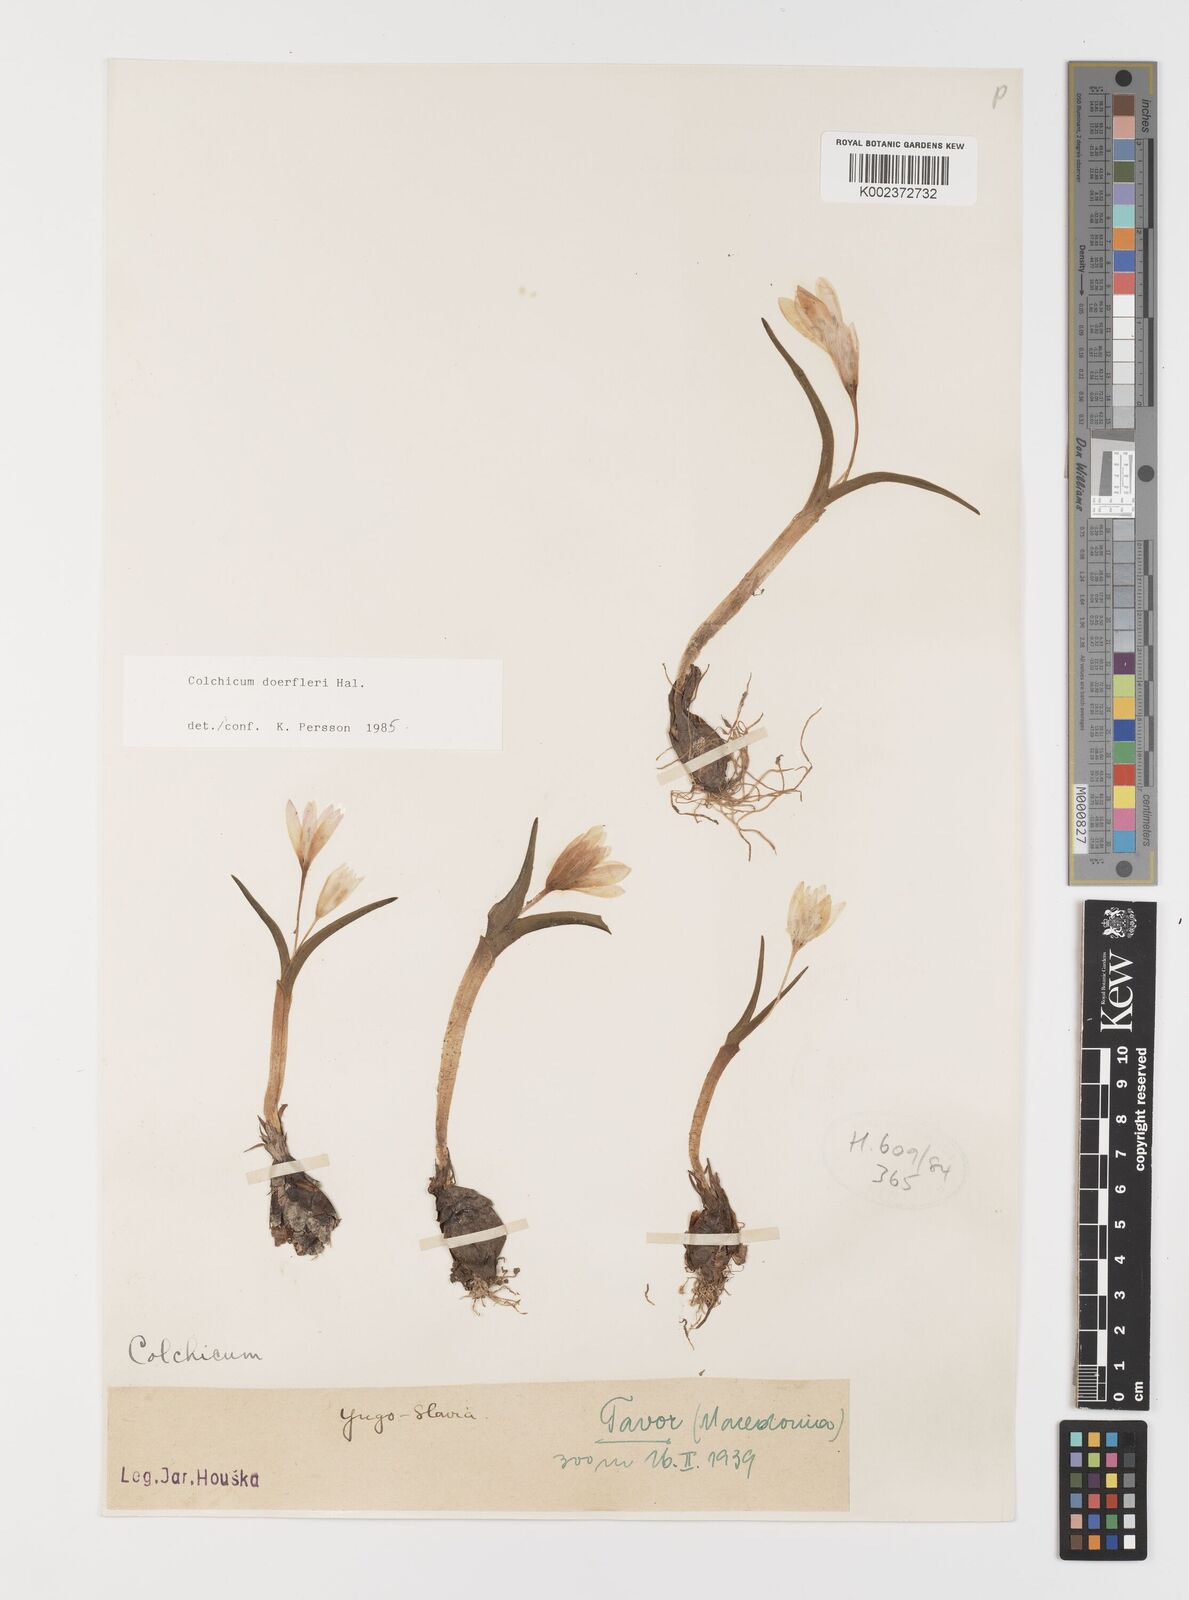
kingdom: Plantae
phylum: Tracheophyta
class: Liliopsida
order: Liliales
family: Colchicaceae
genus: Colchicum
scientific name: Colchicum doerfleri
